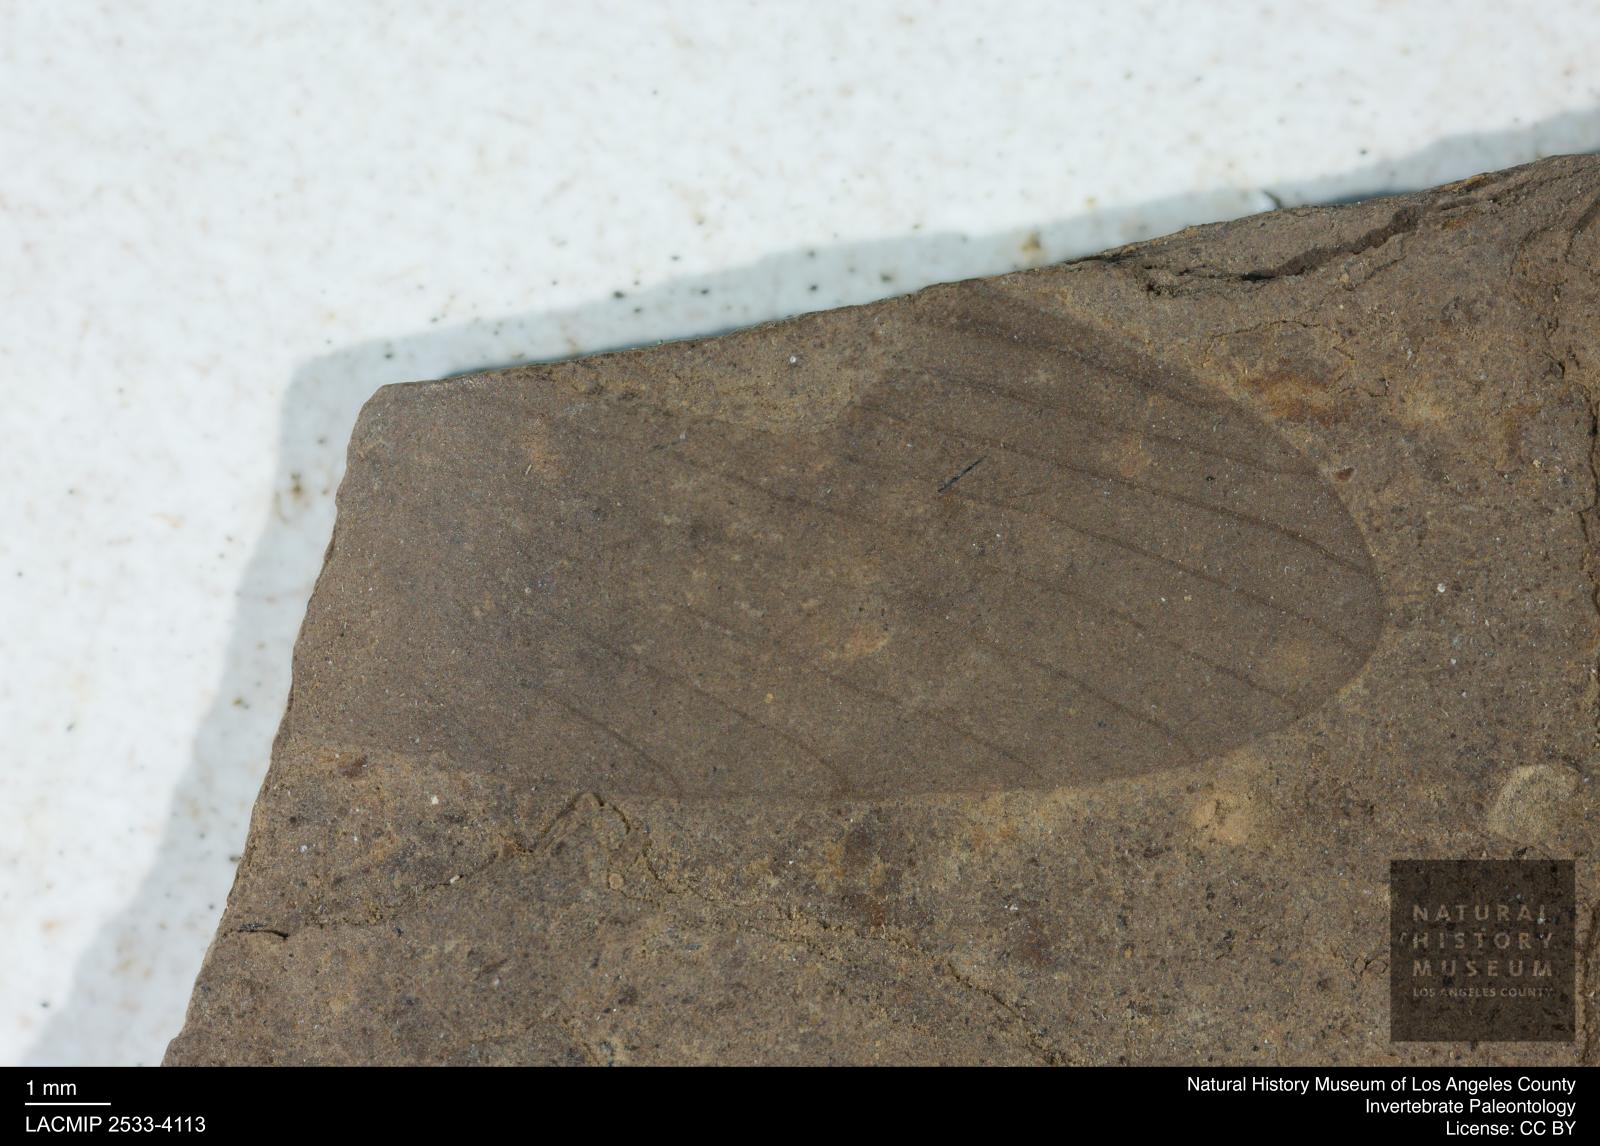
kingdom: Animalia
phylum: Arthropoda
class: Insecta
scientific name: Insecta
